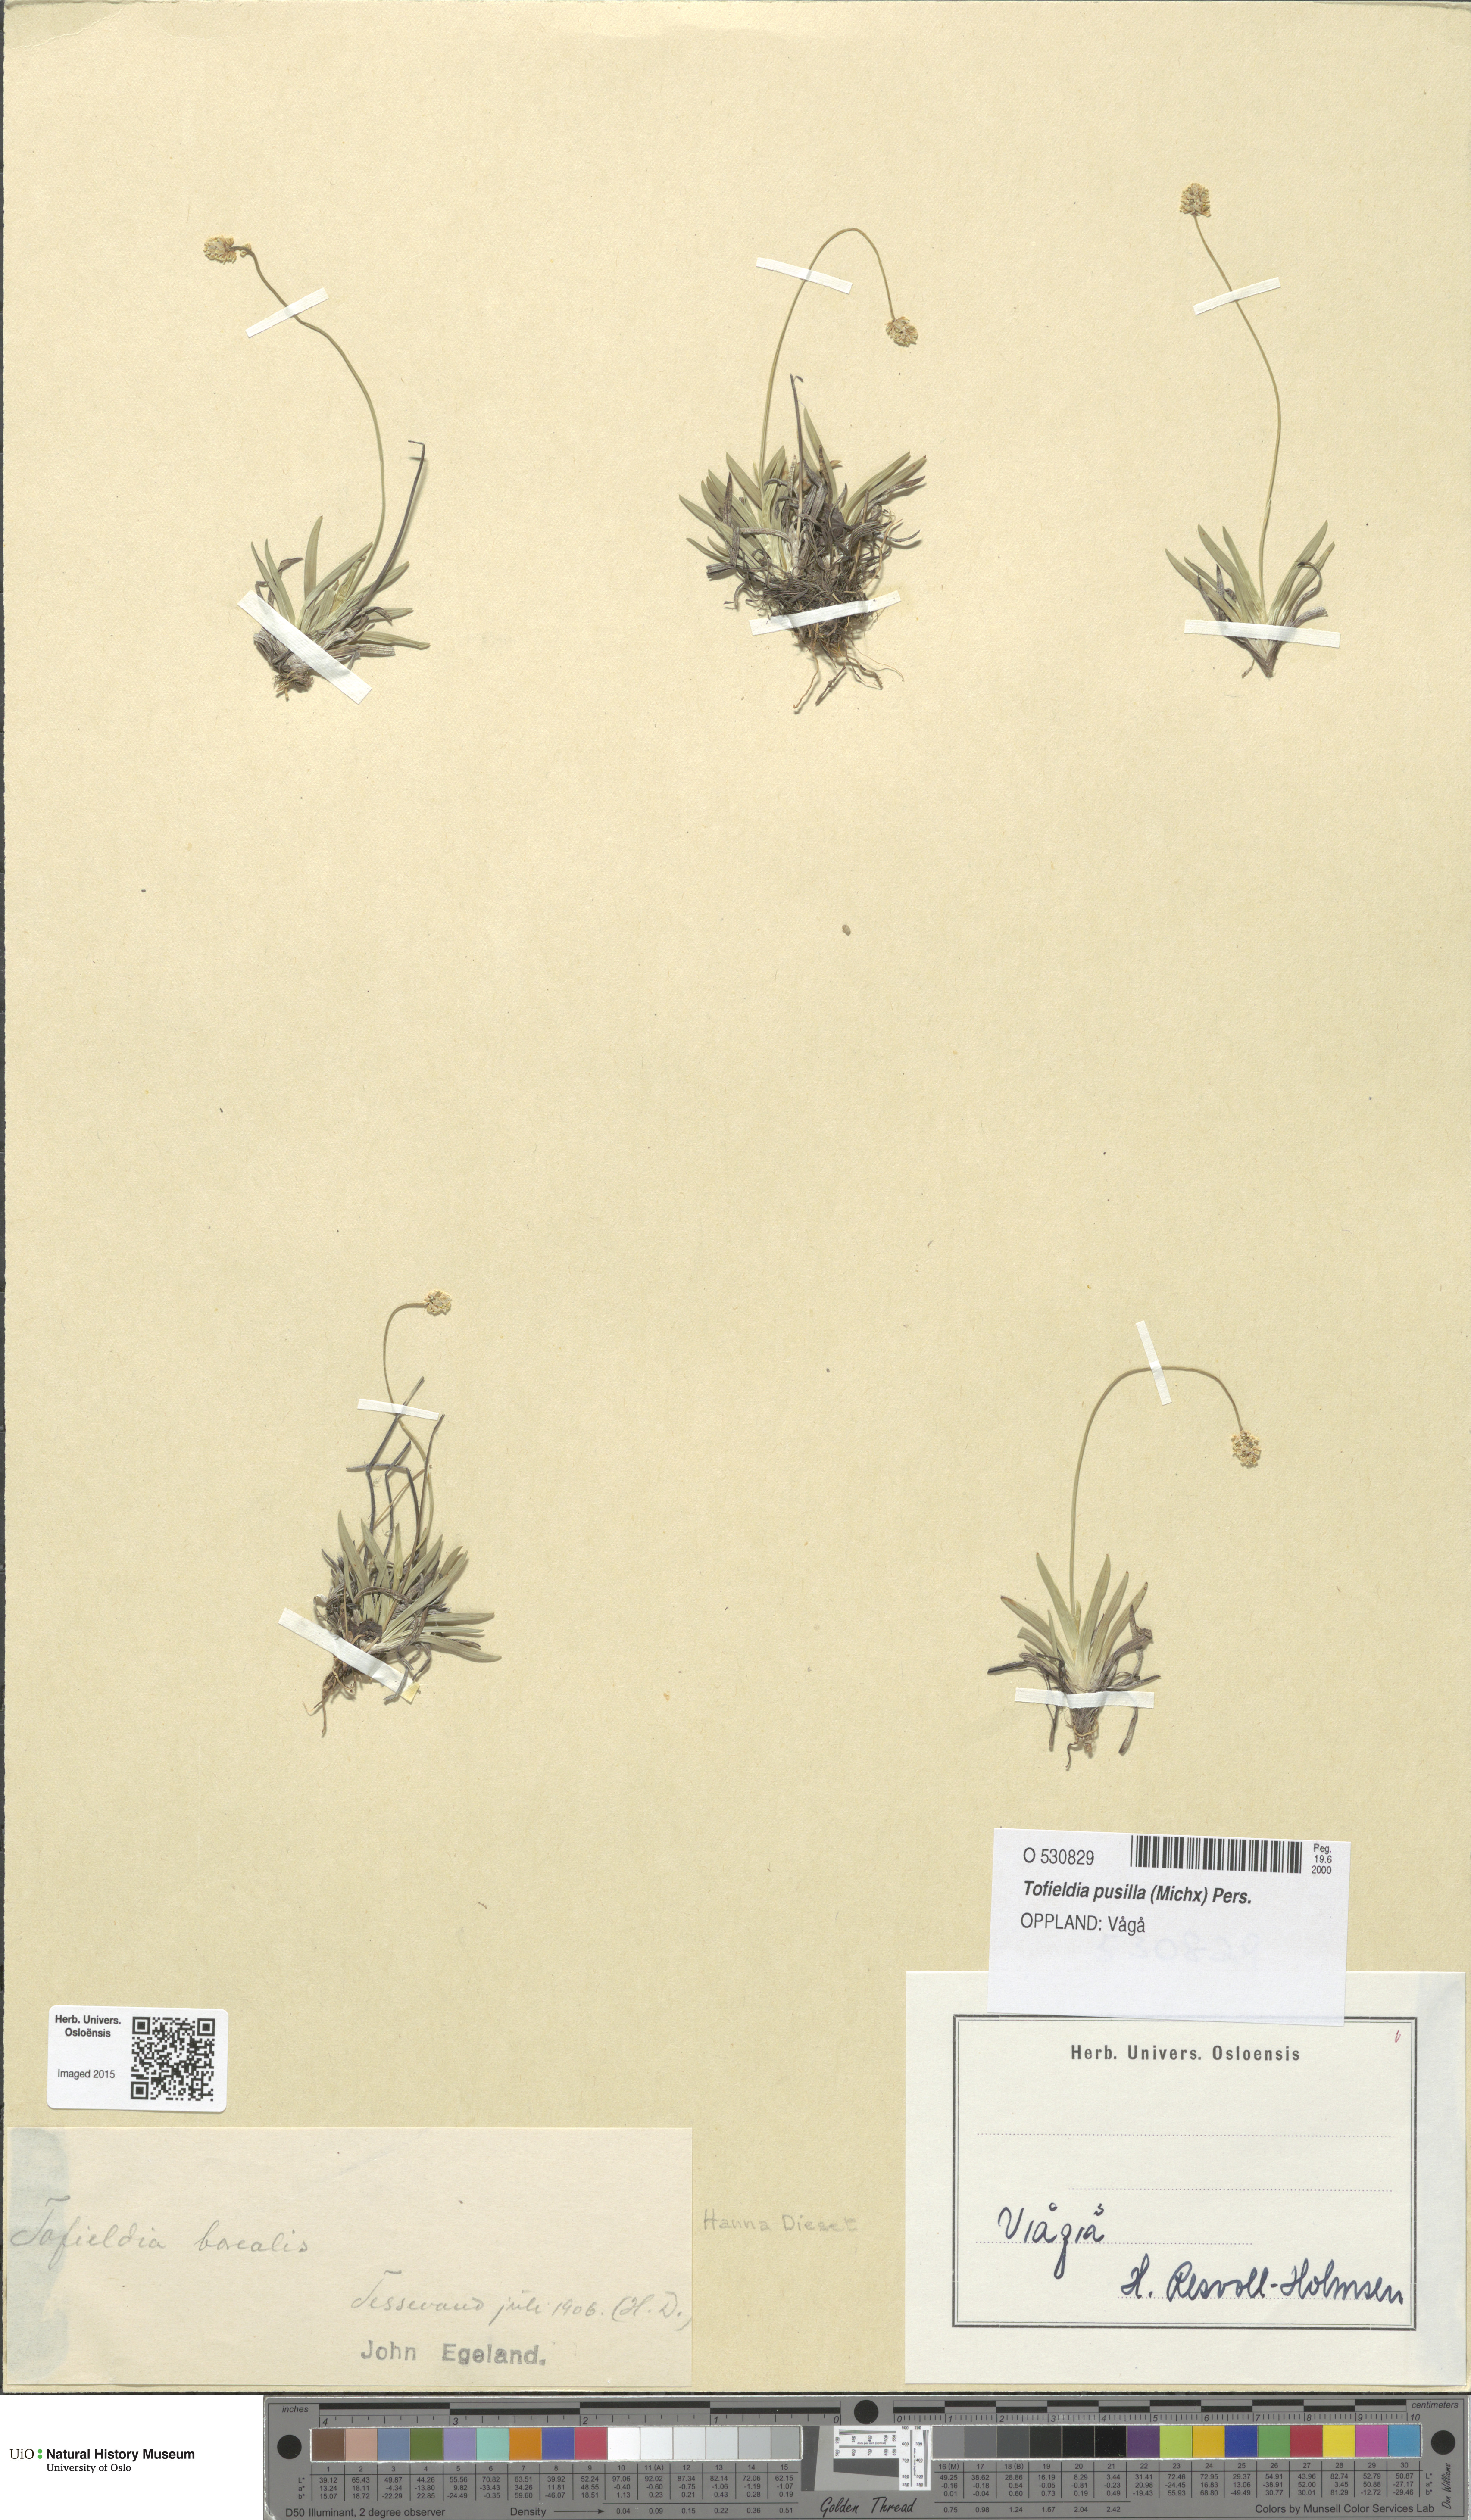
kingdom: Plantae
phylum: Tracheophyta
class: Liliopsida
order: Alismatales
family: Tofieldiaceae
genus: Tofieldia
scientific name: Tofieldia pusilla
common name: Scottish false asphodel
